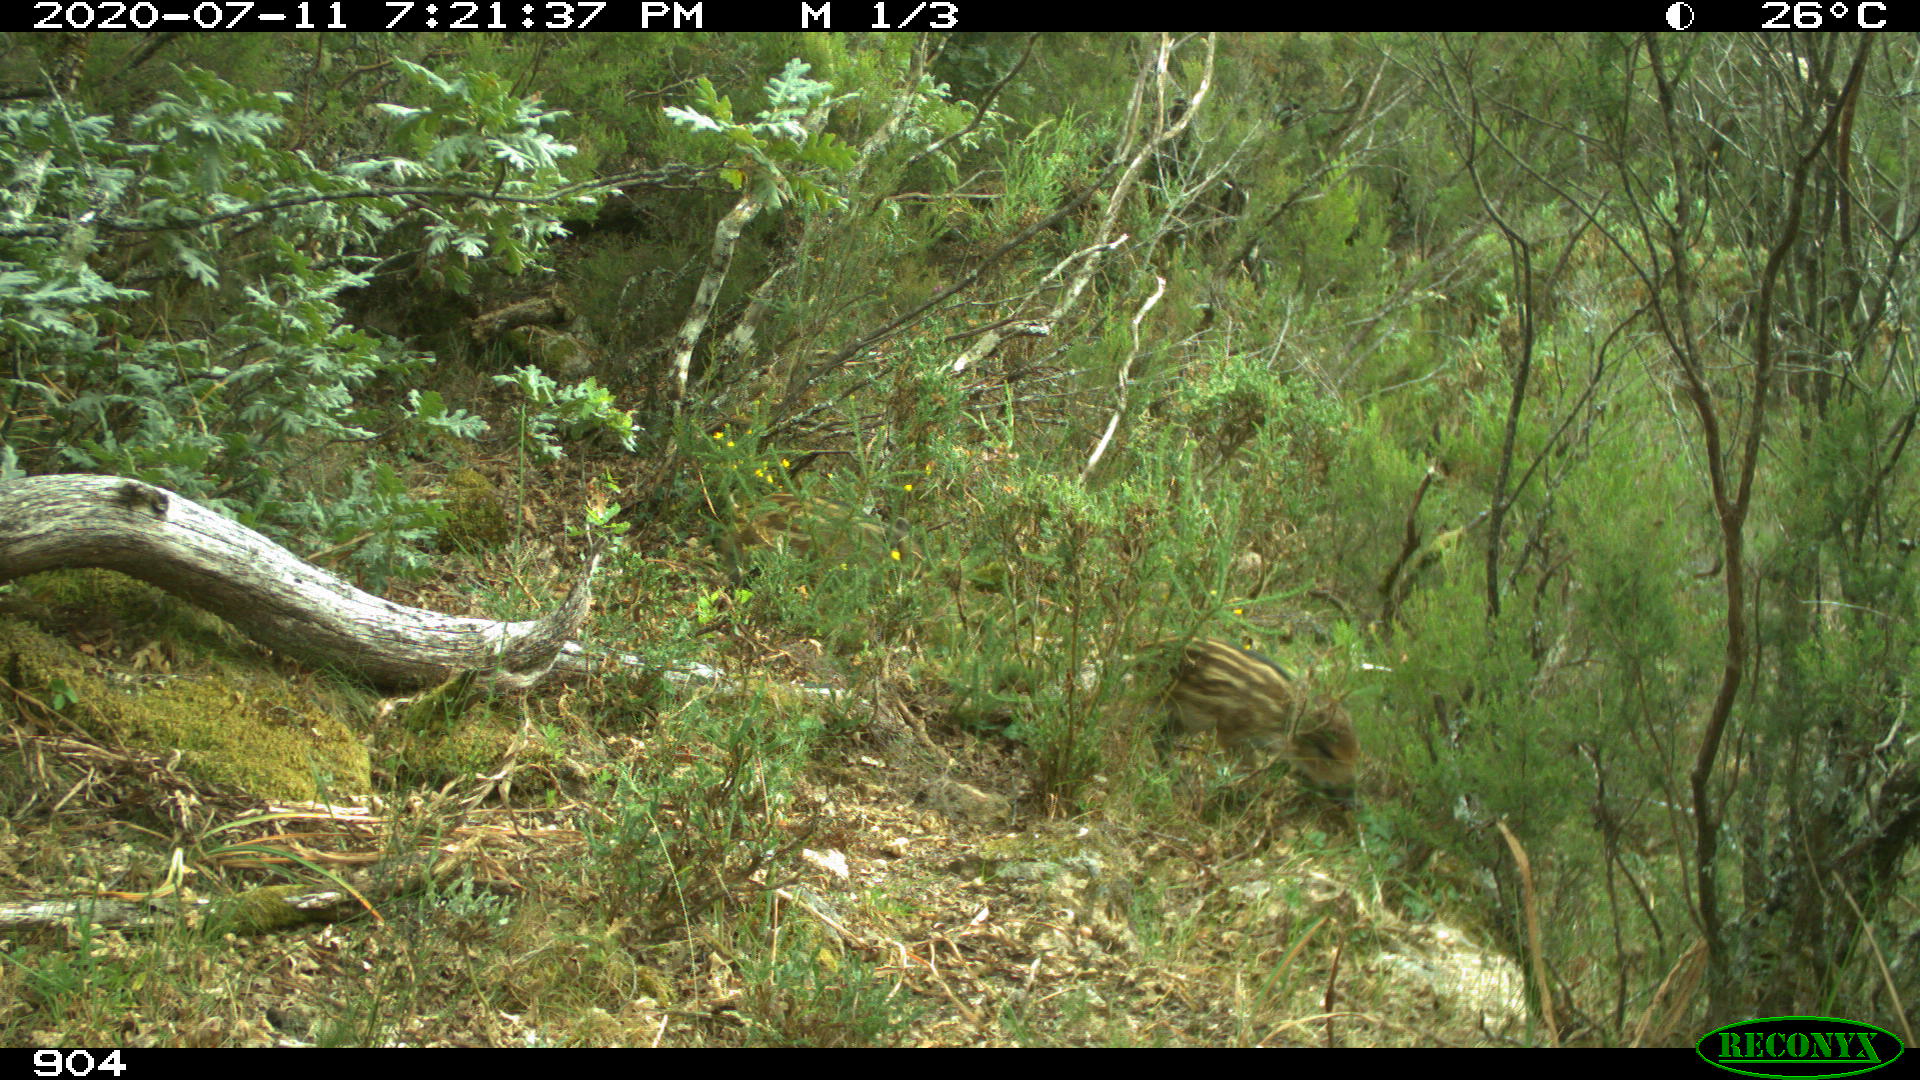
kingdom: Animalia
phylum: Chordata
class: Mammalia
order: Artiodactyla
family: Suidae
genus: Sus
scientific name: Sus scrofa
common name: Wild boar
